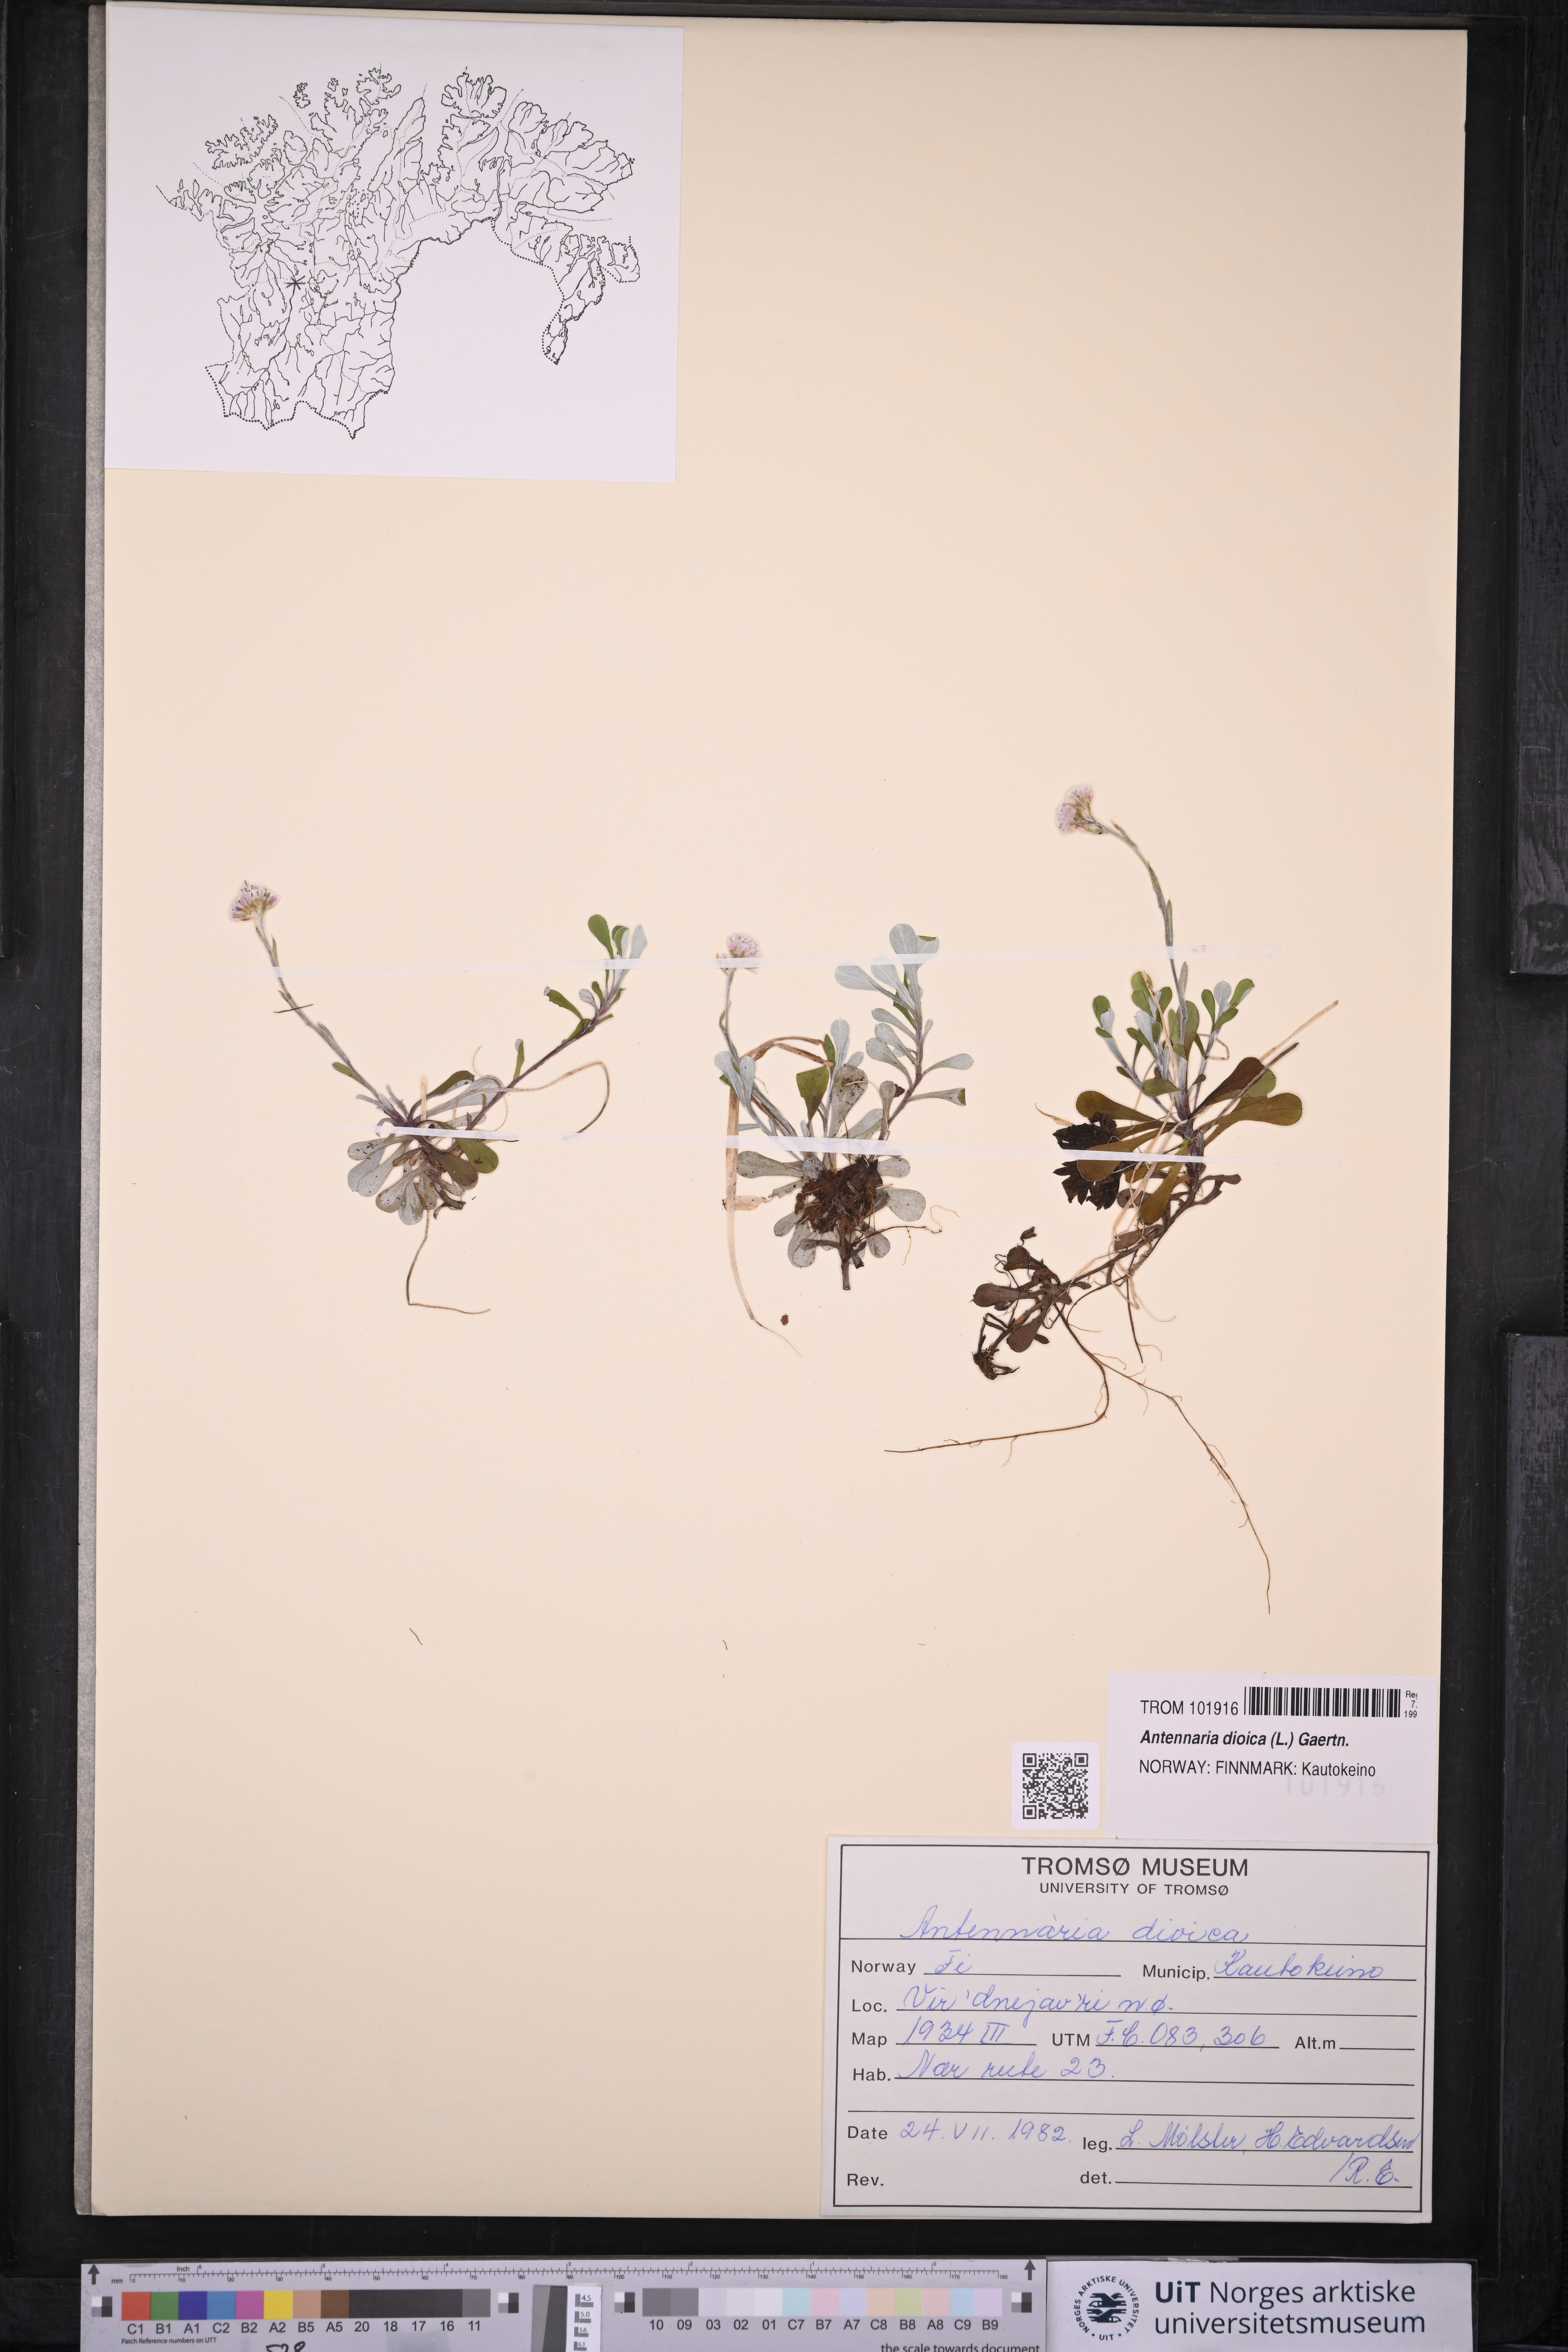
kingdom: Plantae
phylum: Tracheophyta
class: Magnoliopsida
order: Asterales
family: Asteraceae
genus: Antennaria
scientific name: Antennaria dioica
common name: Mountain everlasting
